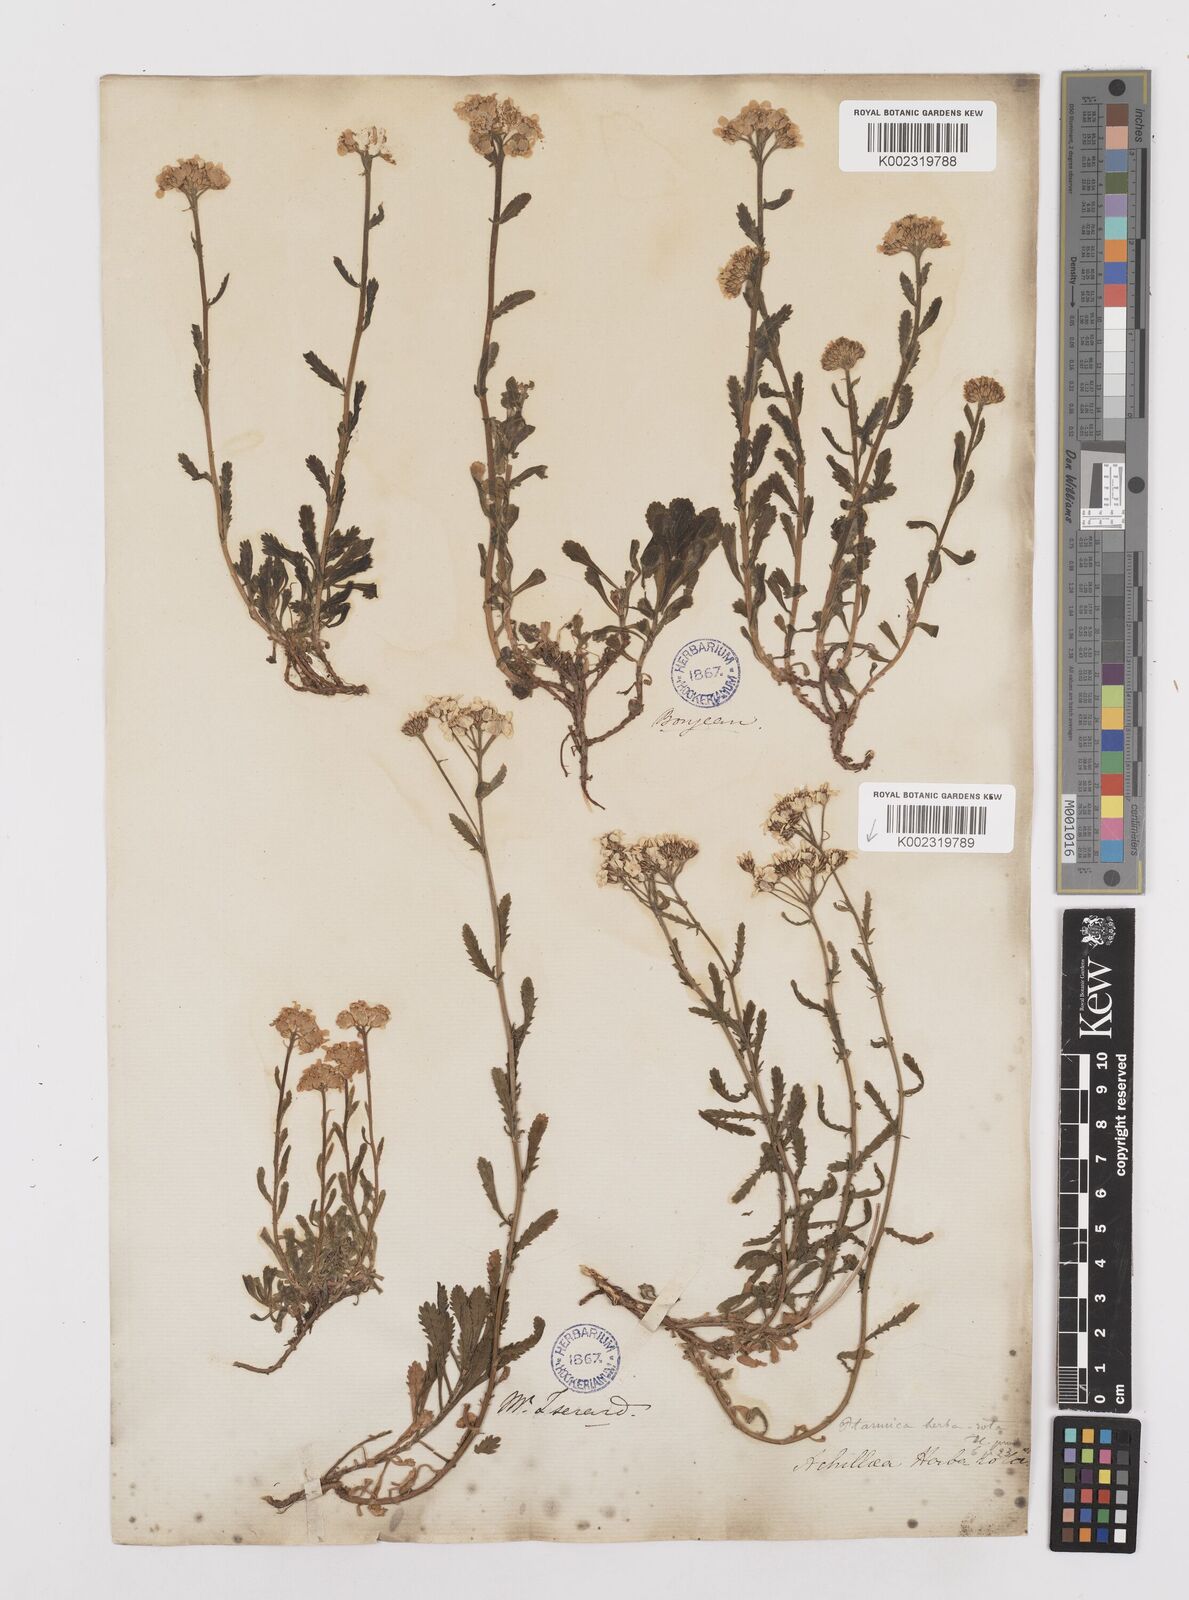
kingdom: Plantae
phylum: Tracheophyta
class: Magnoliopsida
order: Asterales
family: Asteraceae
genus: Achillea
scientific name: Achillea erba-rotta
